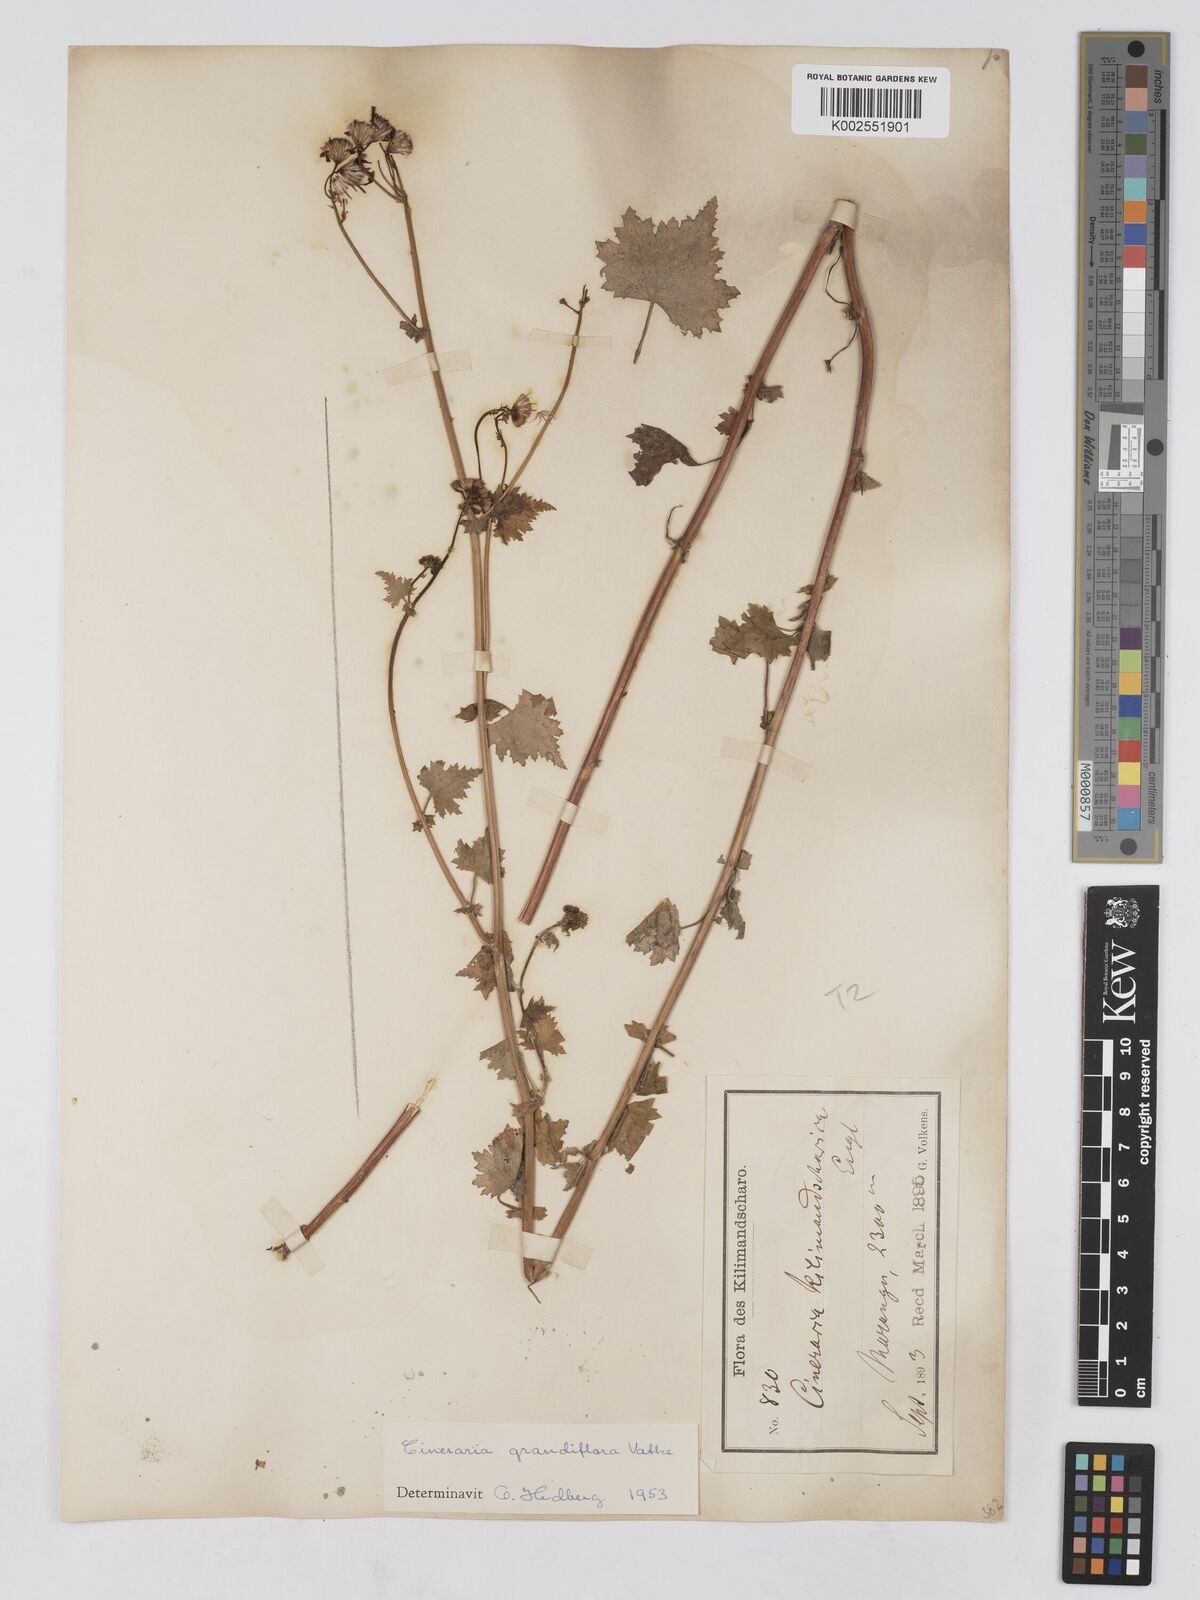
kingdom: Plantae
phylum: Tracheophyta
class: Magnoliopsida
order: Asterales
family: Asteraceae
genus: Cineraria
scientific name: Cineraria deltoidea
